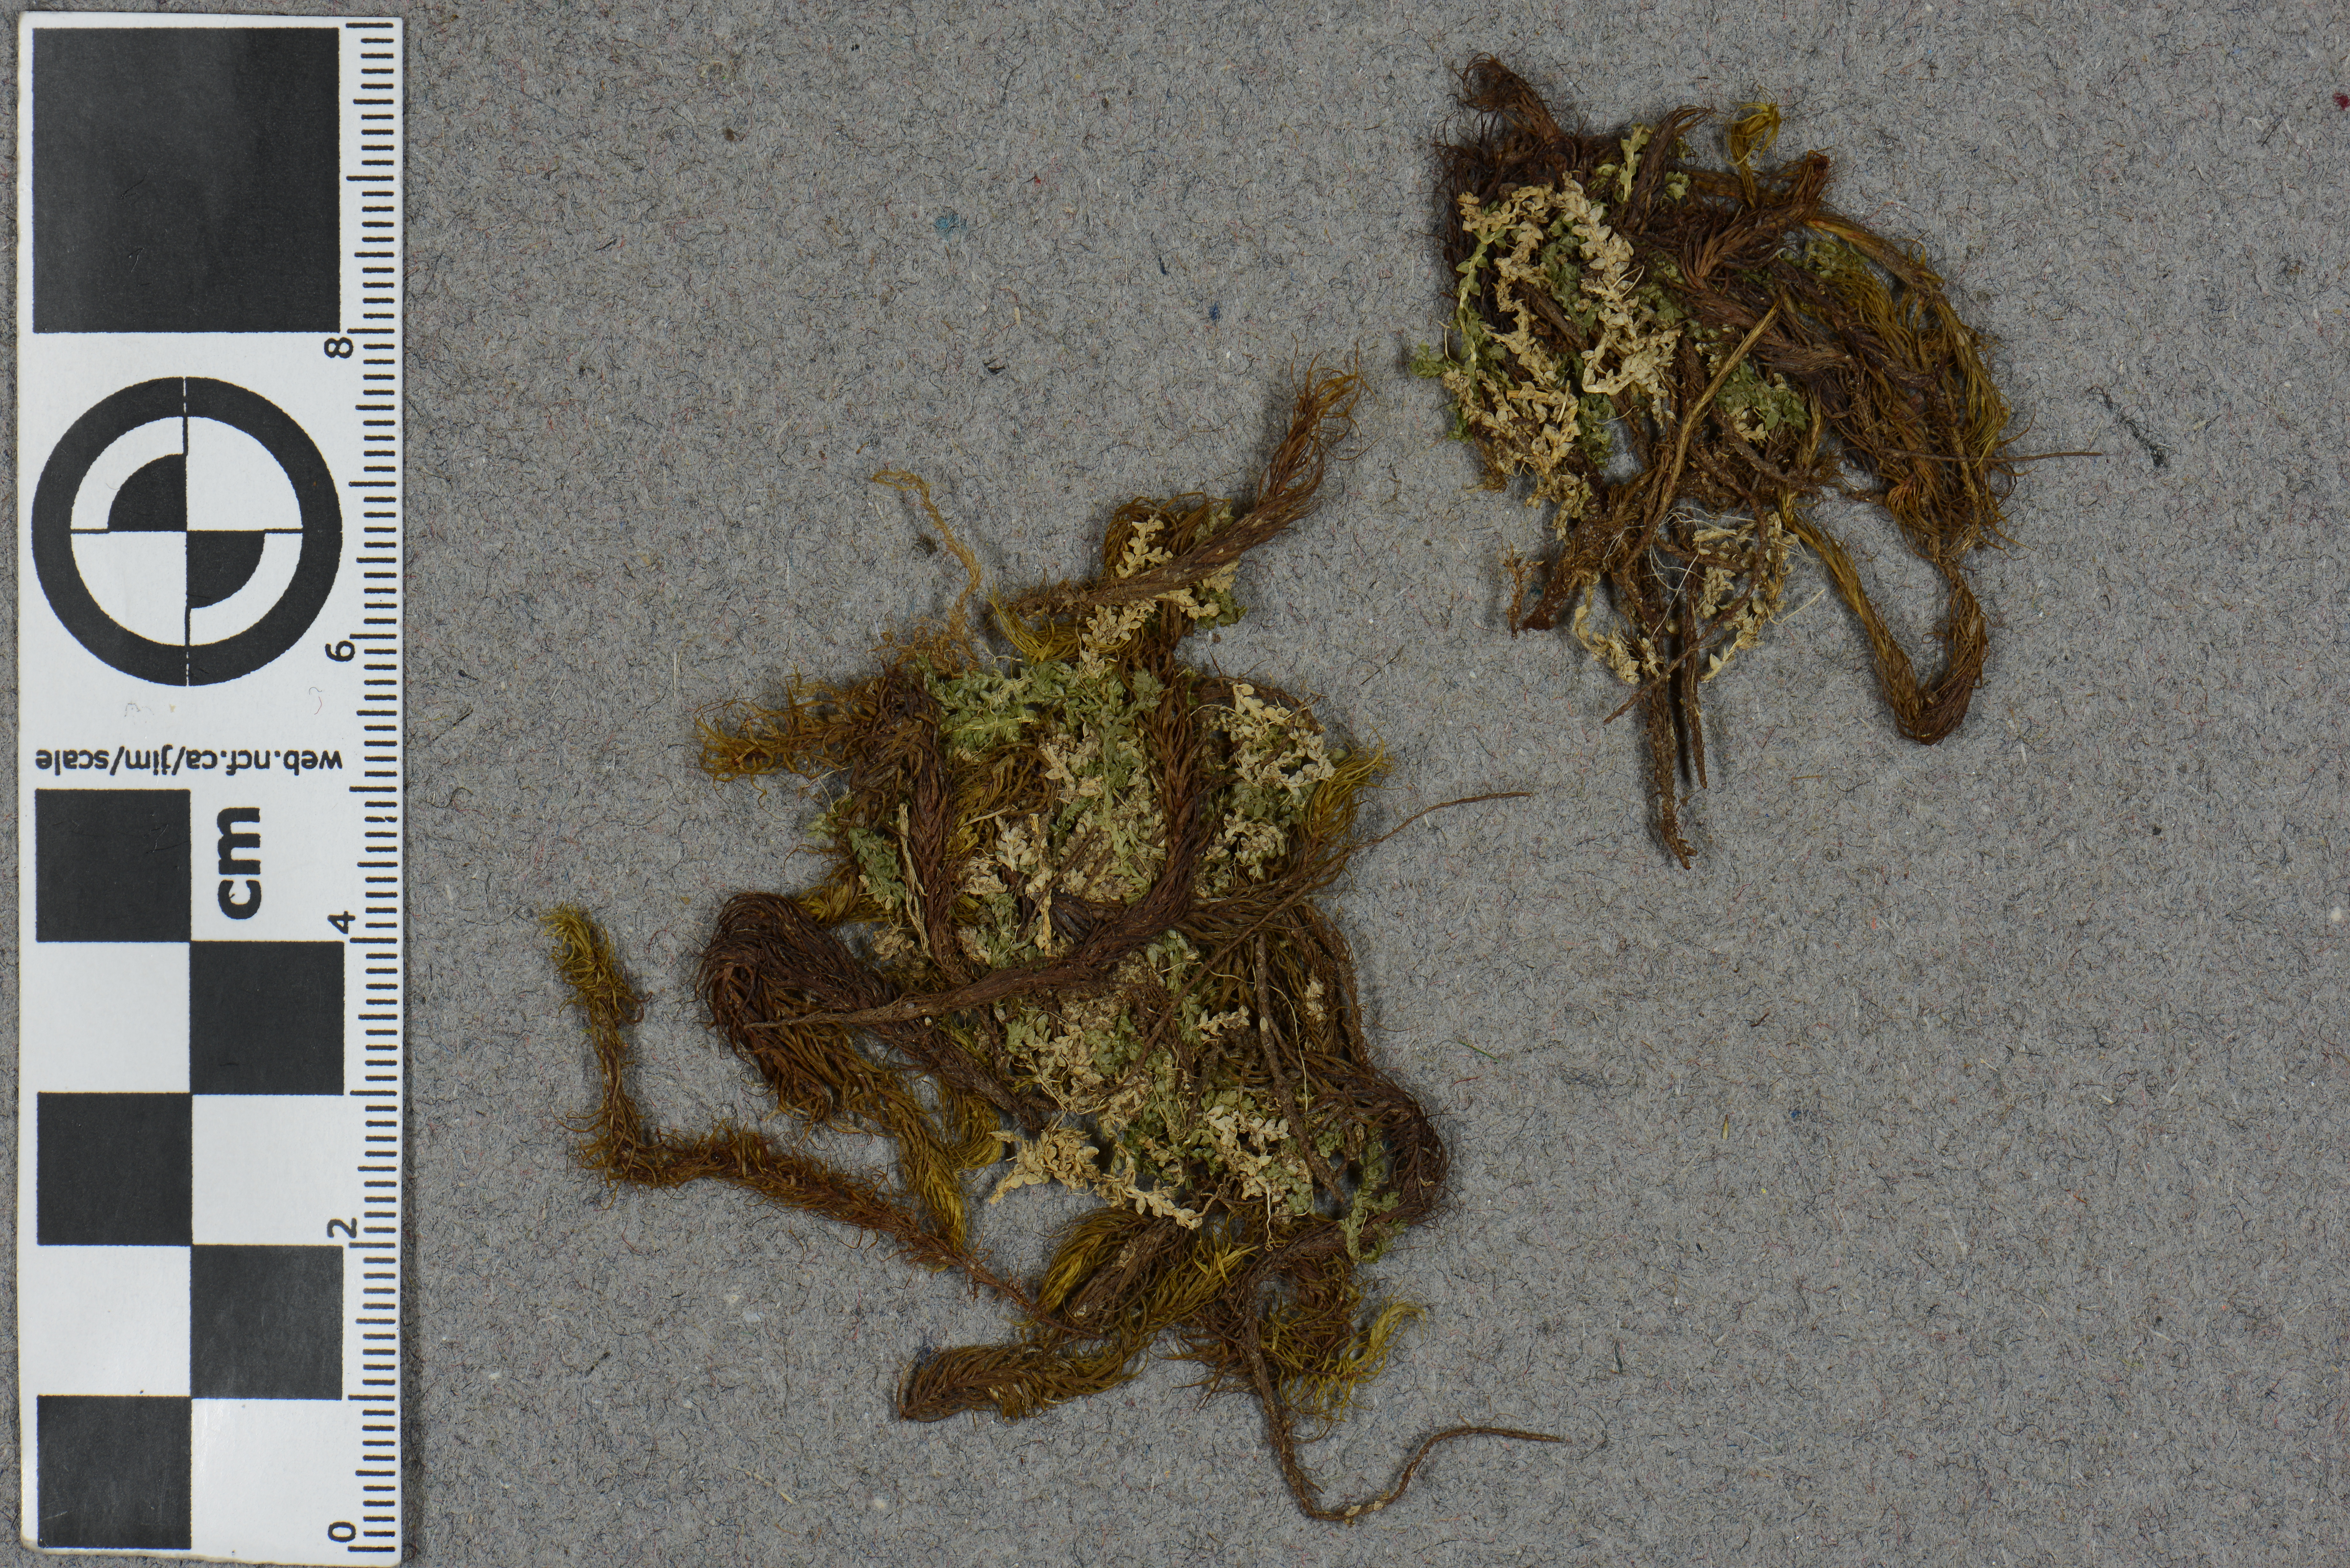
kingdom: Plantae
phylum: Bryophyta
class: Bryopsida
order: Dicranales
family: Leucobryaceae
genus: Campylopus
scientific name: Campylopus torrentis
